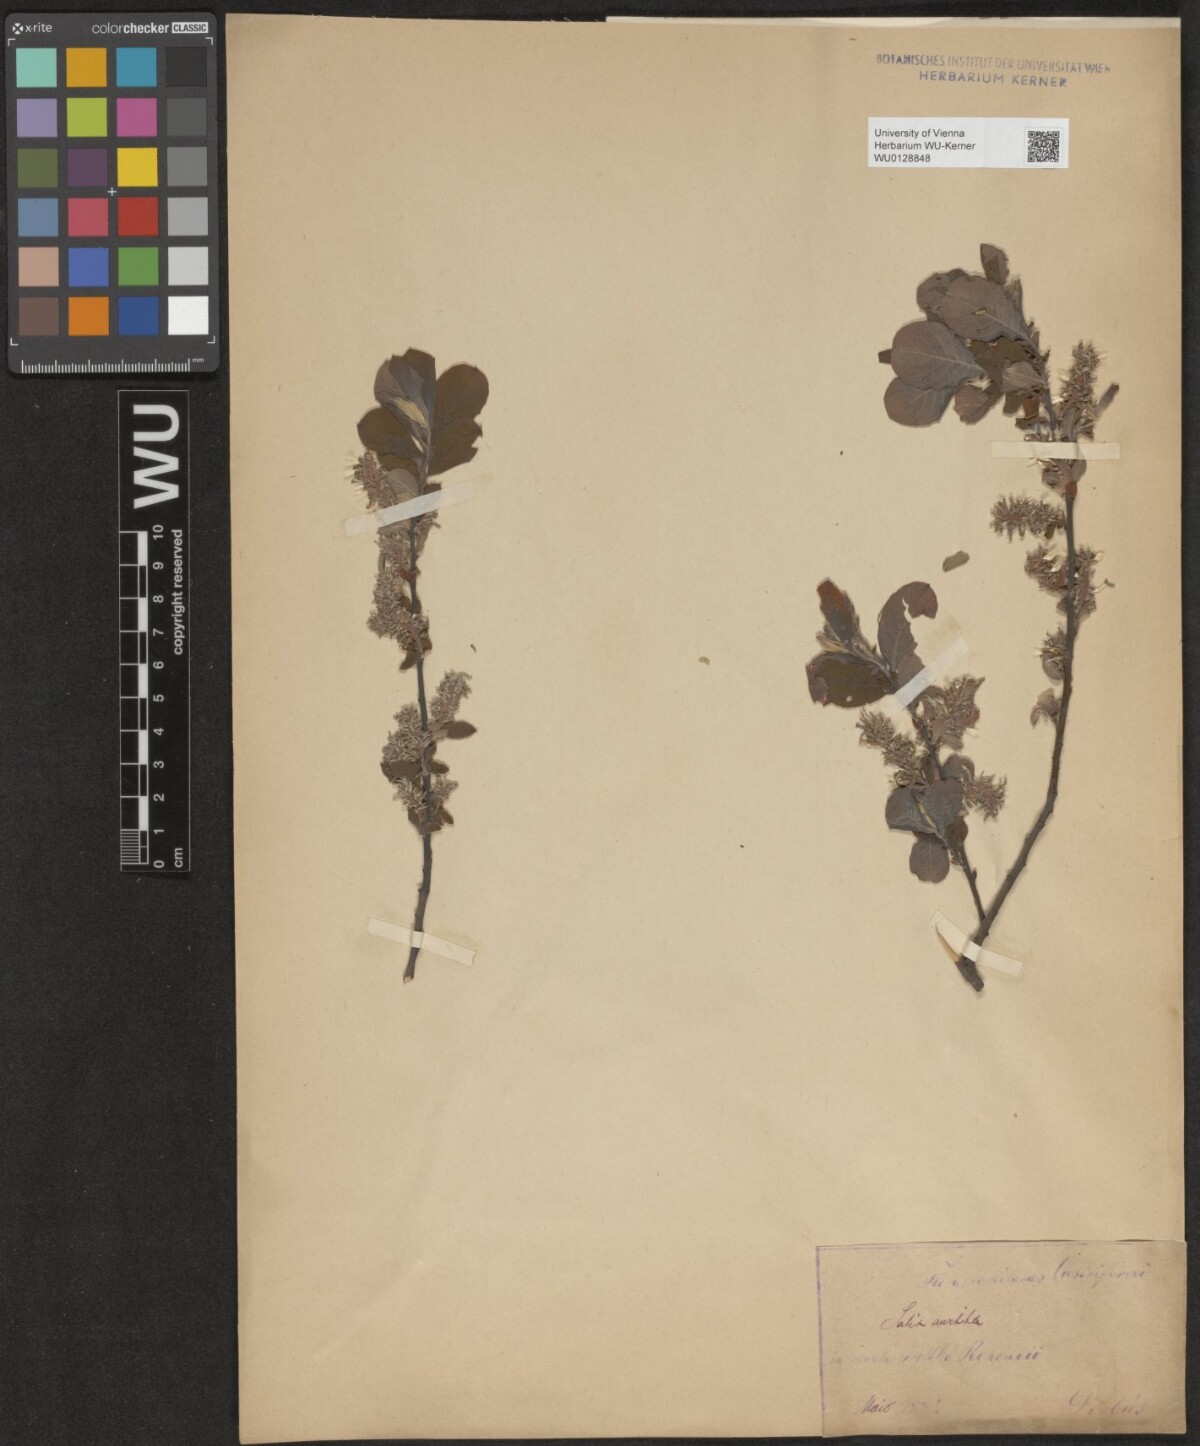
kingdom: Plantae
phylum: Tracheophyta
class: Magnoliopsida
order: Malpighiales
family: Salicaceae
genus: Salix
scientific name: Salix aurita
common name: Eared willow
